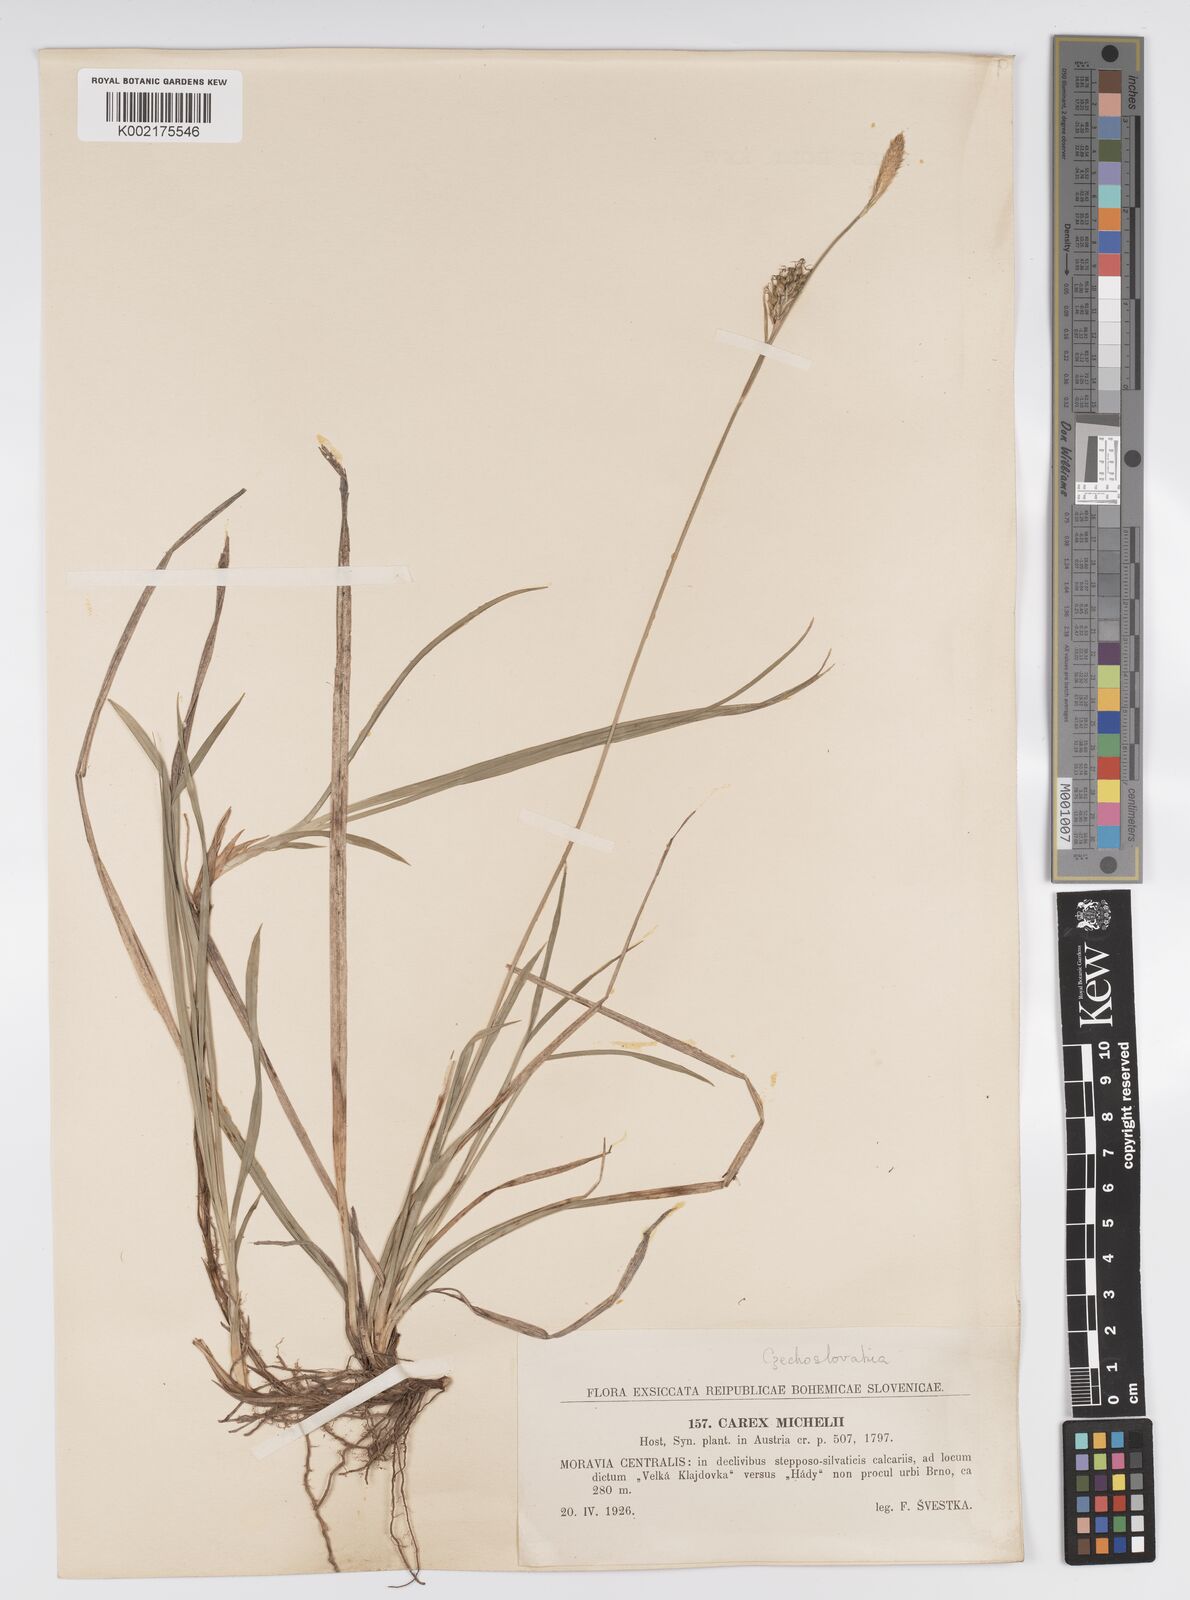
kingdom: Plantae
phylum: Tracheophyta
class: Liliopsida
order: Poales
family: Cyperaceae
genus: Carex
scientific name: Carex michelii
